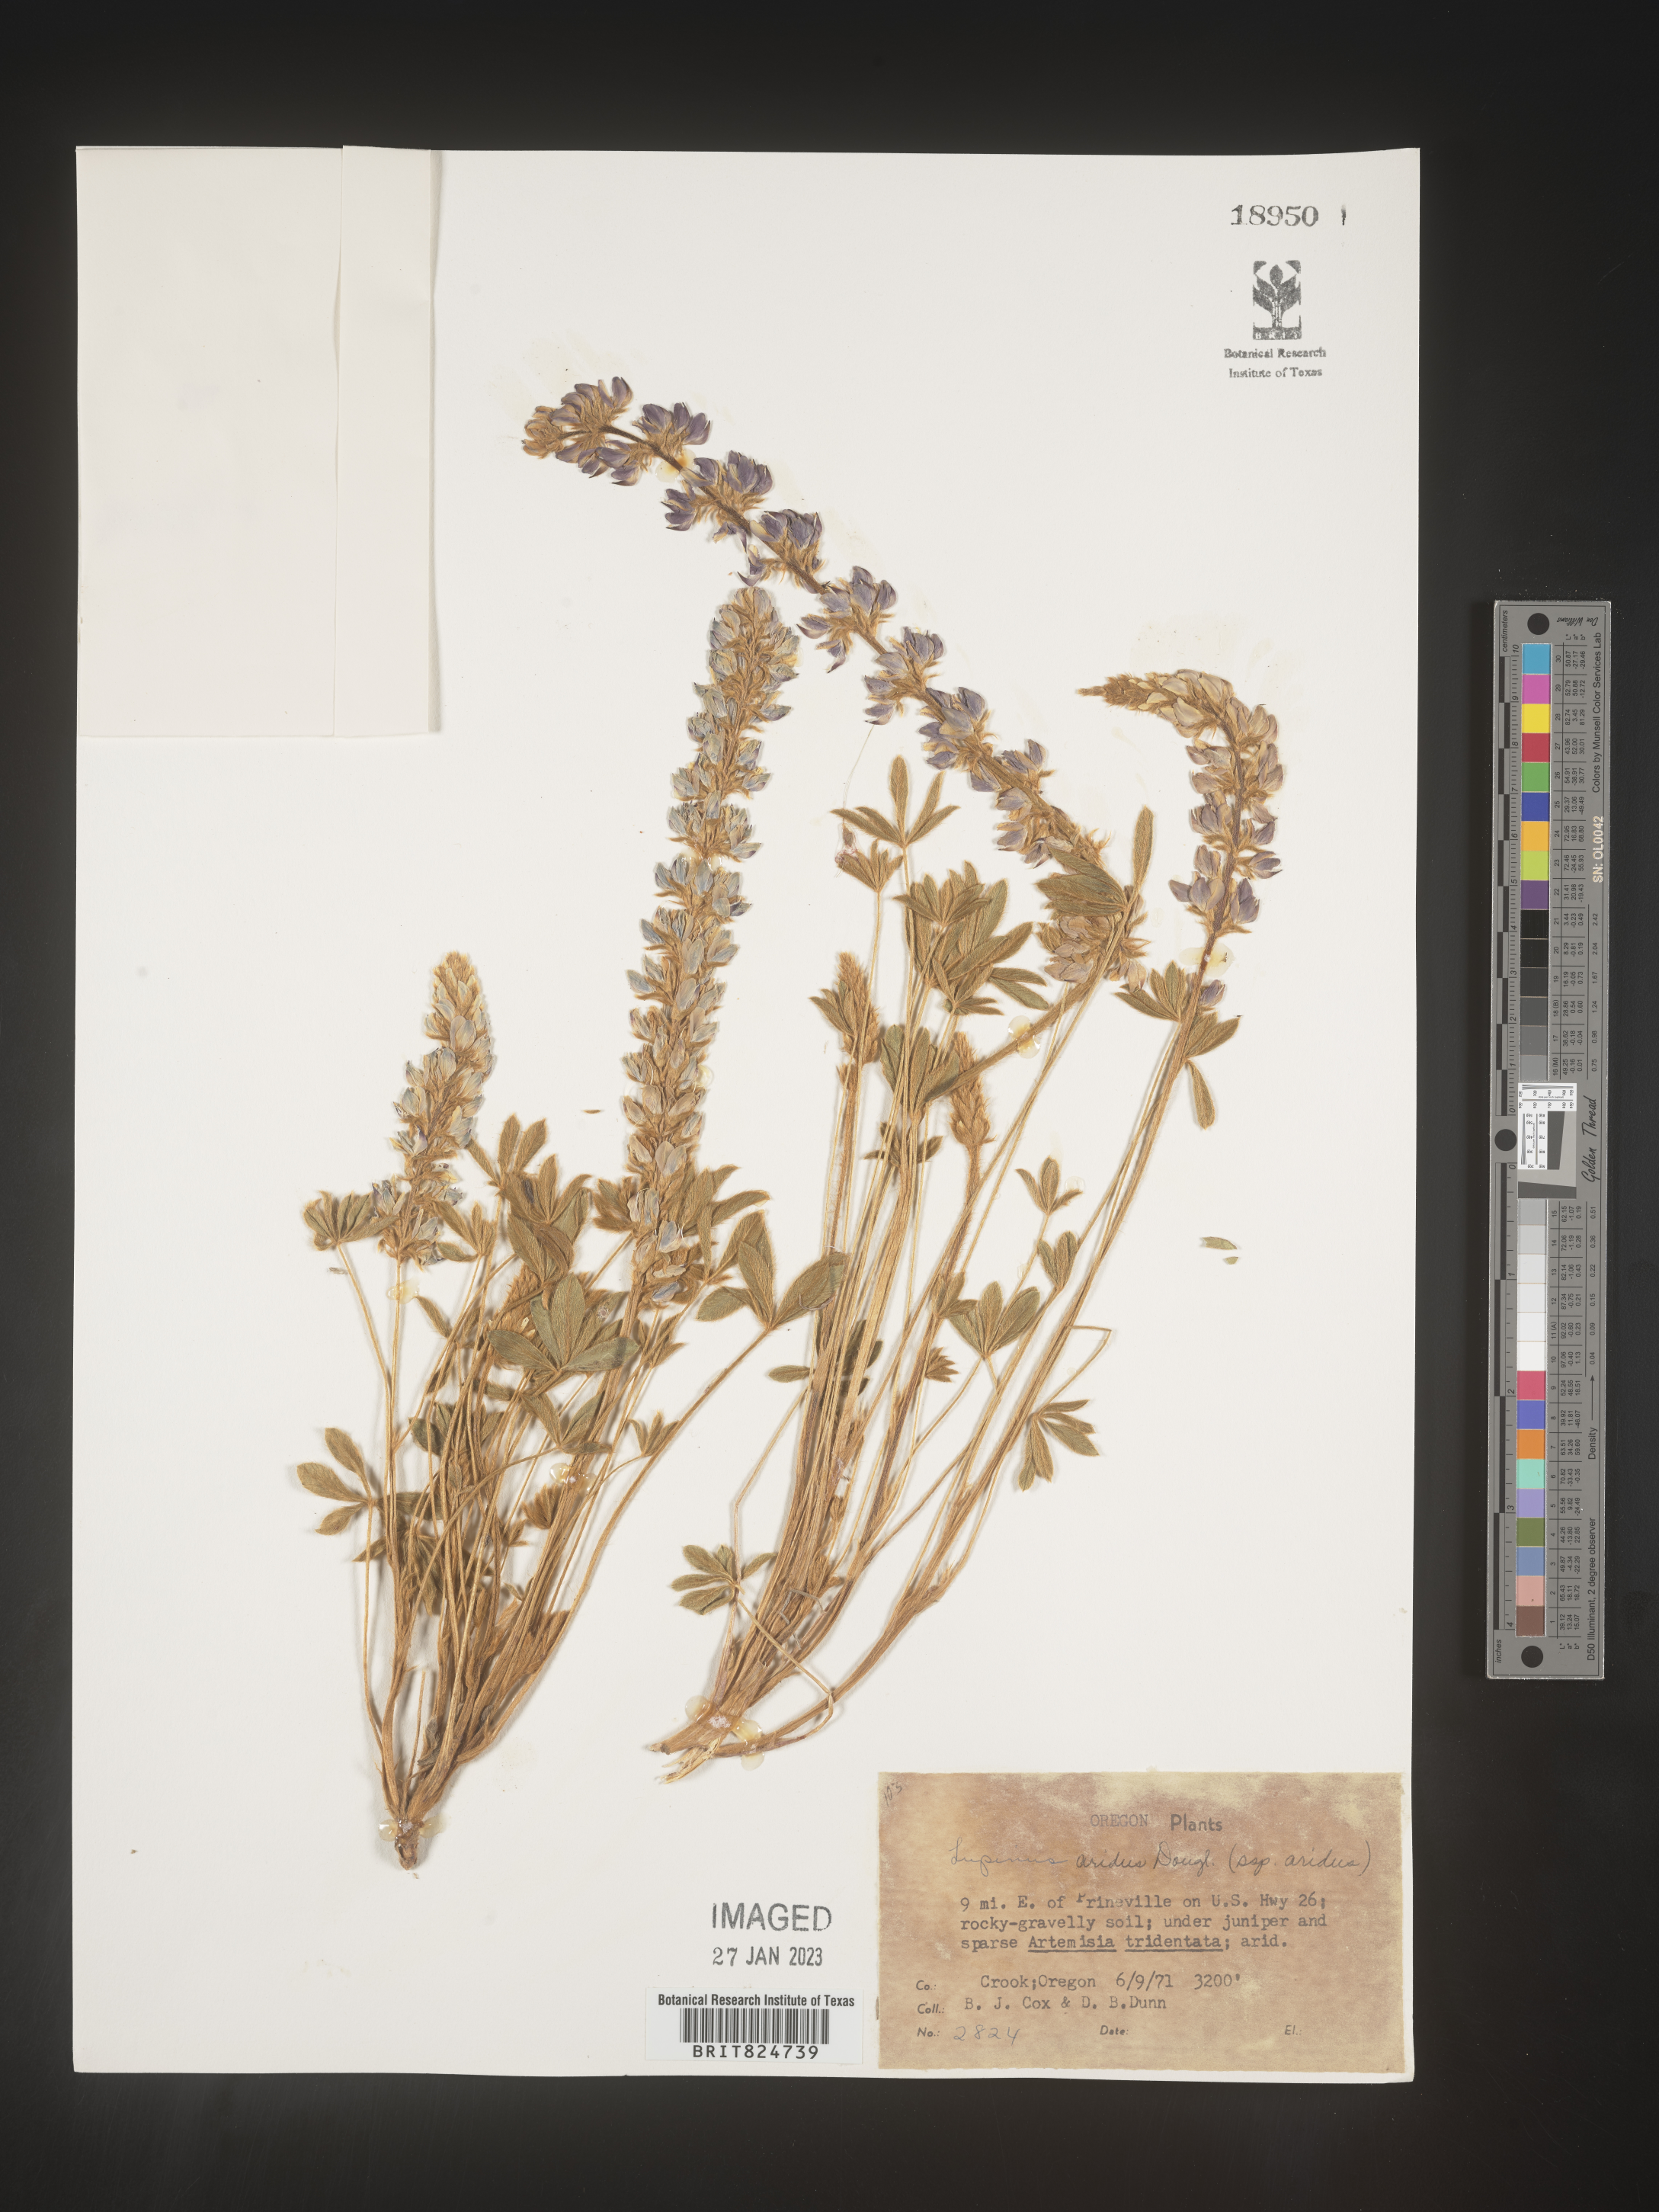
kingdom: Plantae
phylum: Tracheophyta
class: Magnoliopsida
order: Fabales
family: Fabaceae
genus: Lupinus
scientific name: Lupinus aridus
